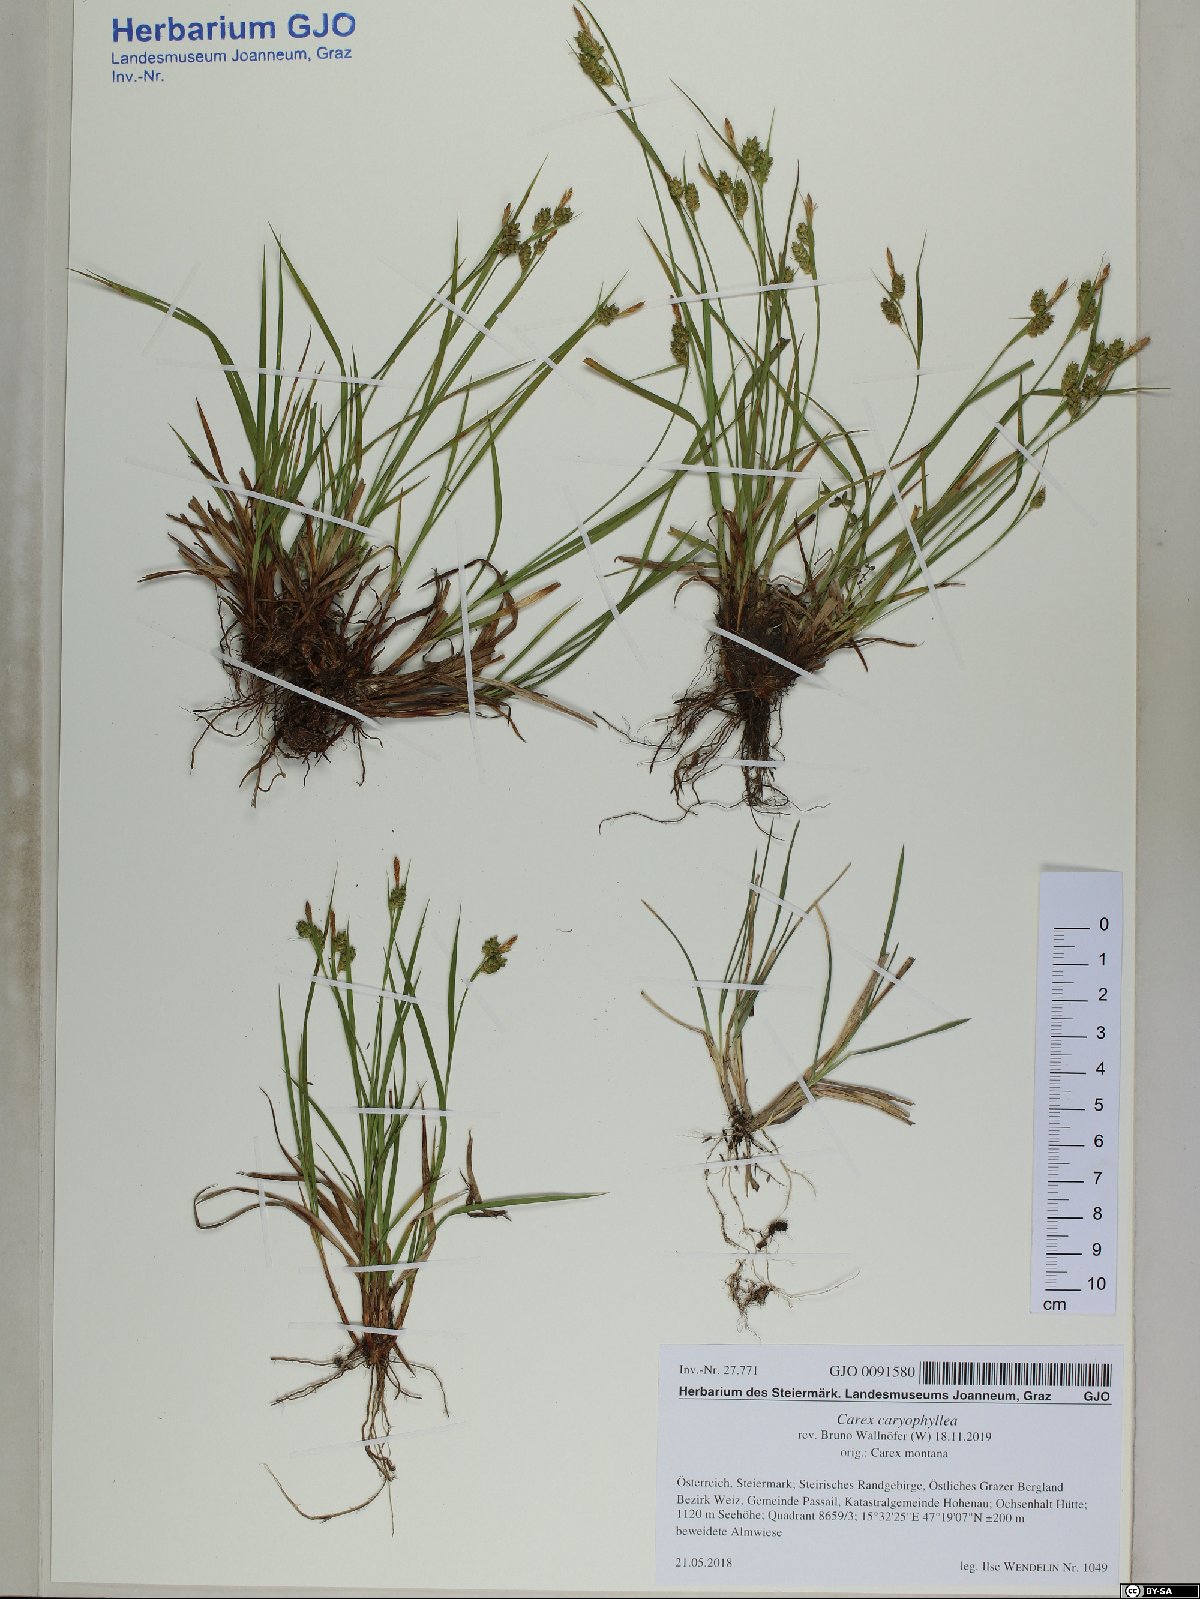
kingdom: Plantae
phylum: Tracheophyta
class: Liliopsida
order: Poales
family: Cyperaceae
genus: Carex
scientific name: Carex caryophyllea
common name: Spring sedge
